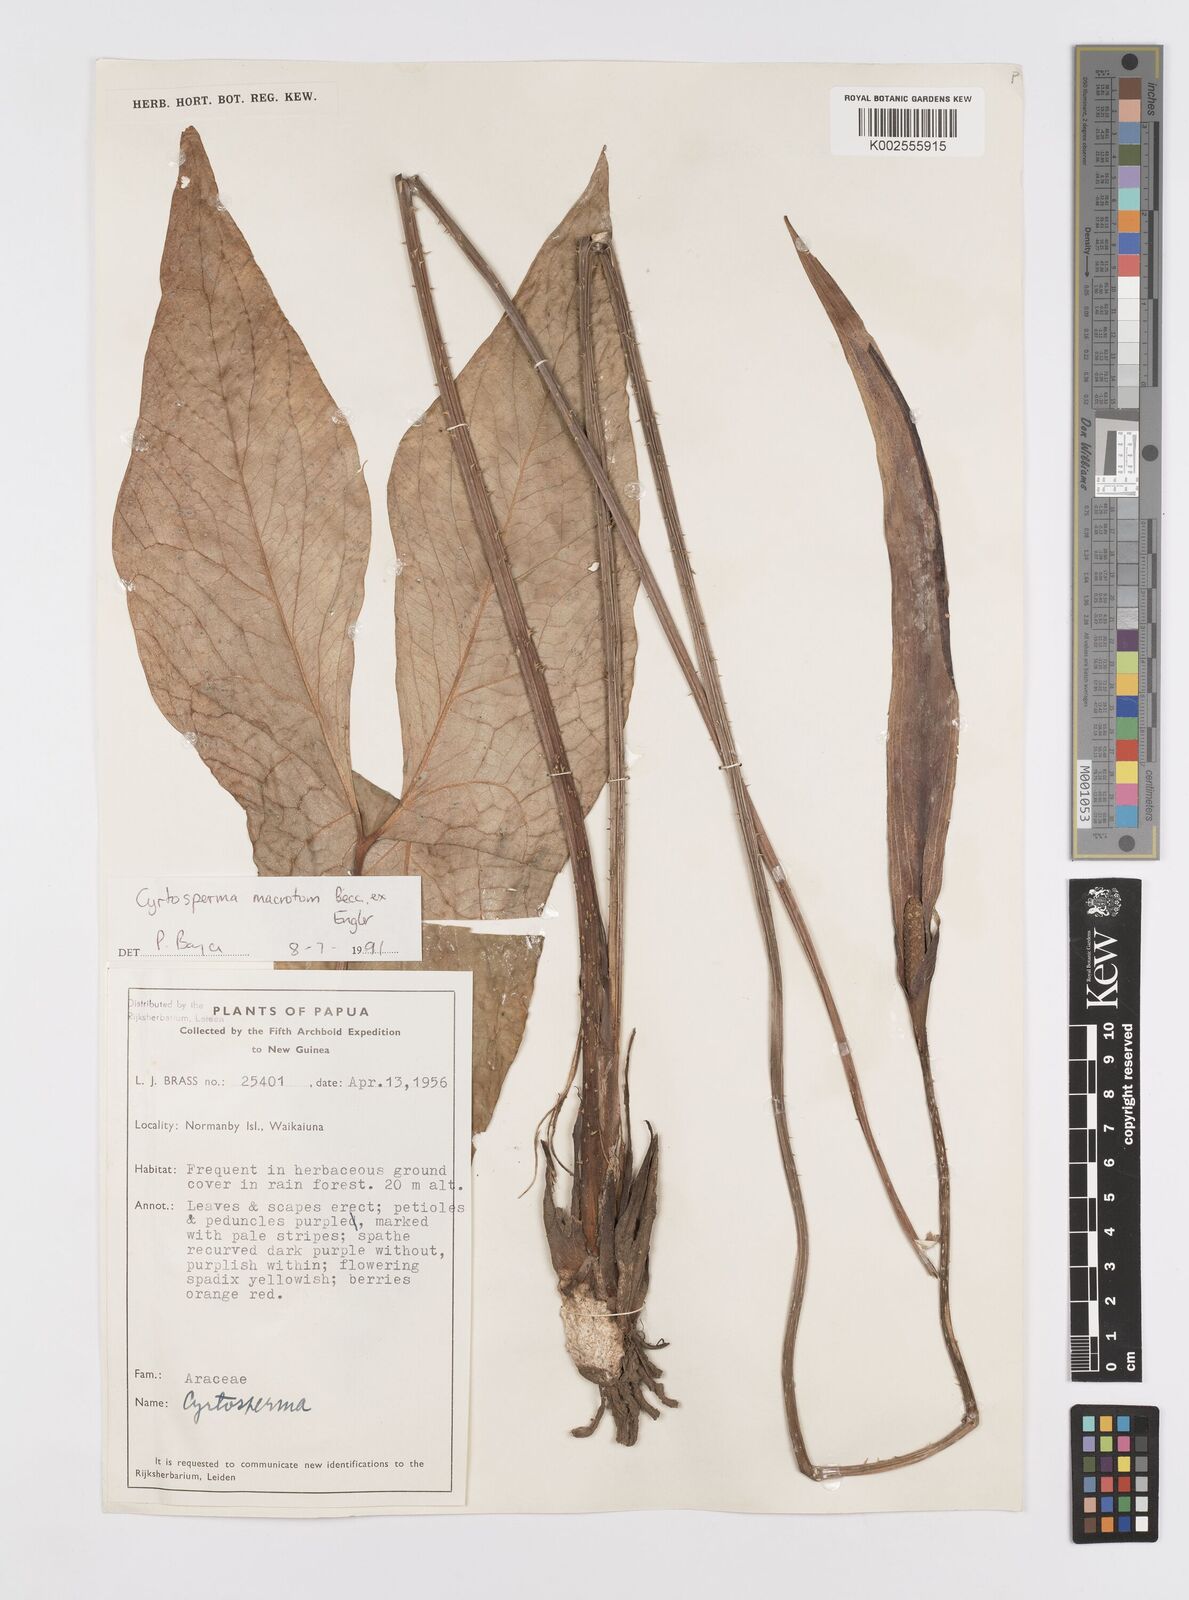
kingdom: Plantae
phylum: Tracheophyta
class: Liliopsida
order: Alismatales
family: Araceae
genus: Cyrtosperma
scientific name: Cyrtosperma macrotum
